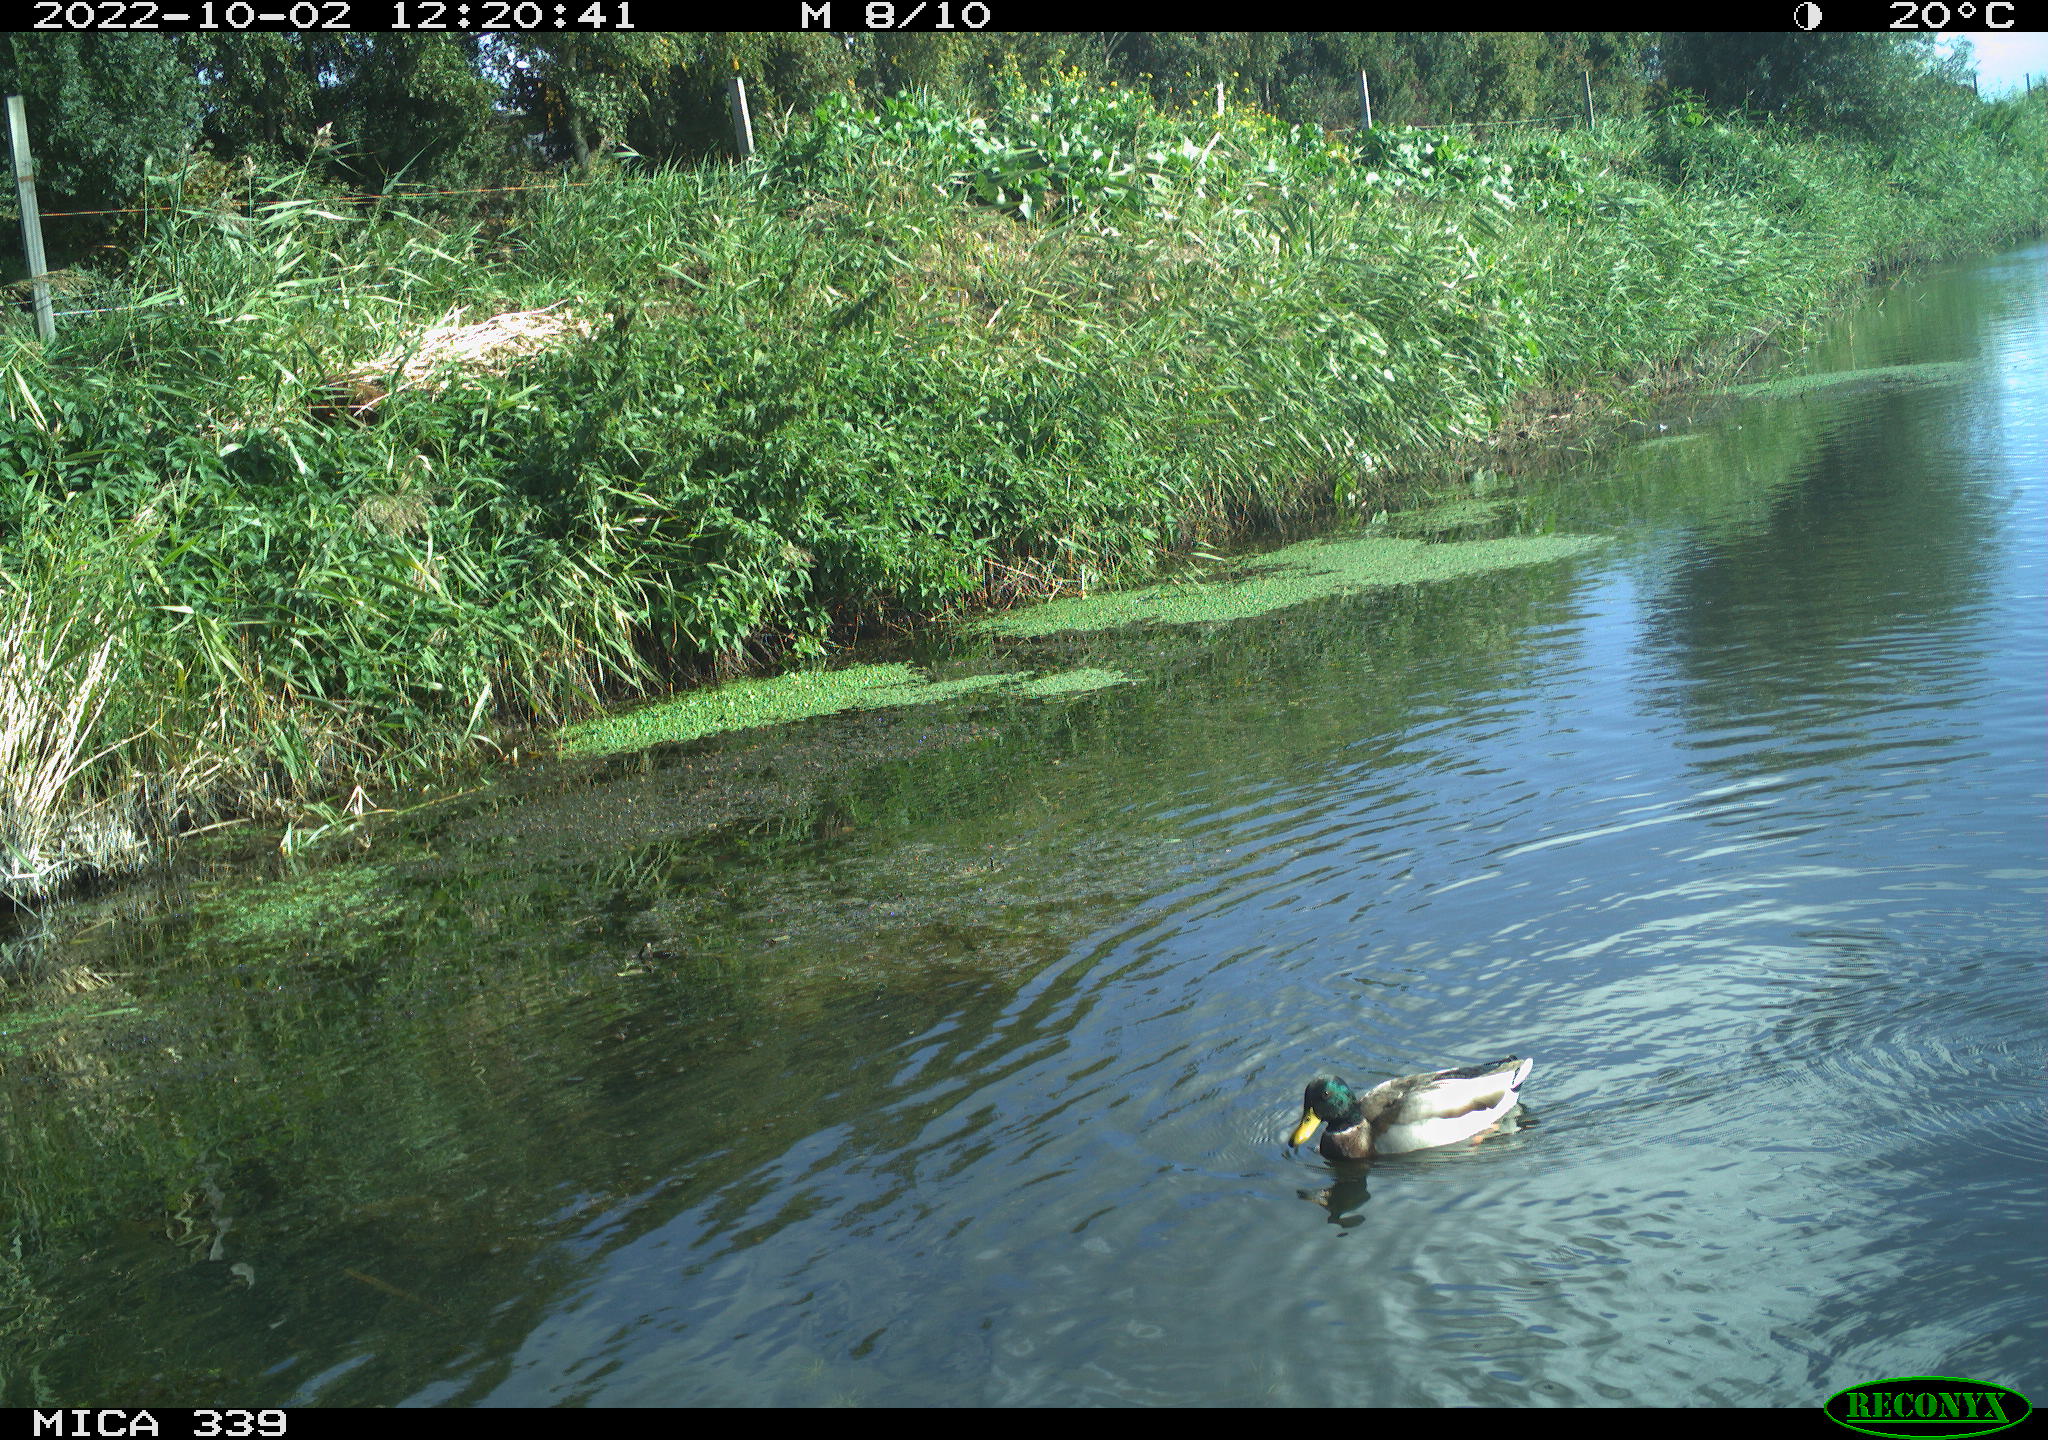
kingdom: Animalia
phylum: Chordata
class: Aves
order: Anseriformes
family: Anatidae
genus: Anas
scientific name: Anas platyrhynchos
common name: Mallard
